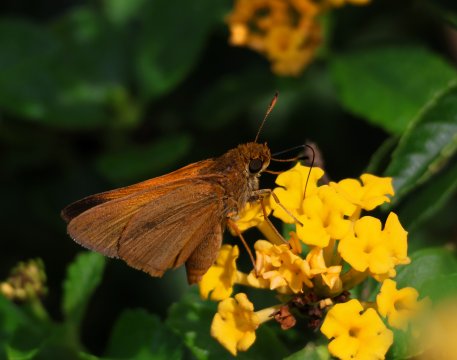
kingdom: Animalia
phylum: Arthropoda
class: Insecta
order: Lepidoptera
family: Hesperiidae
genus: Euphyes
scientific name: Euphyes pilatka
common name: Palatka Skipper
